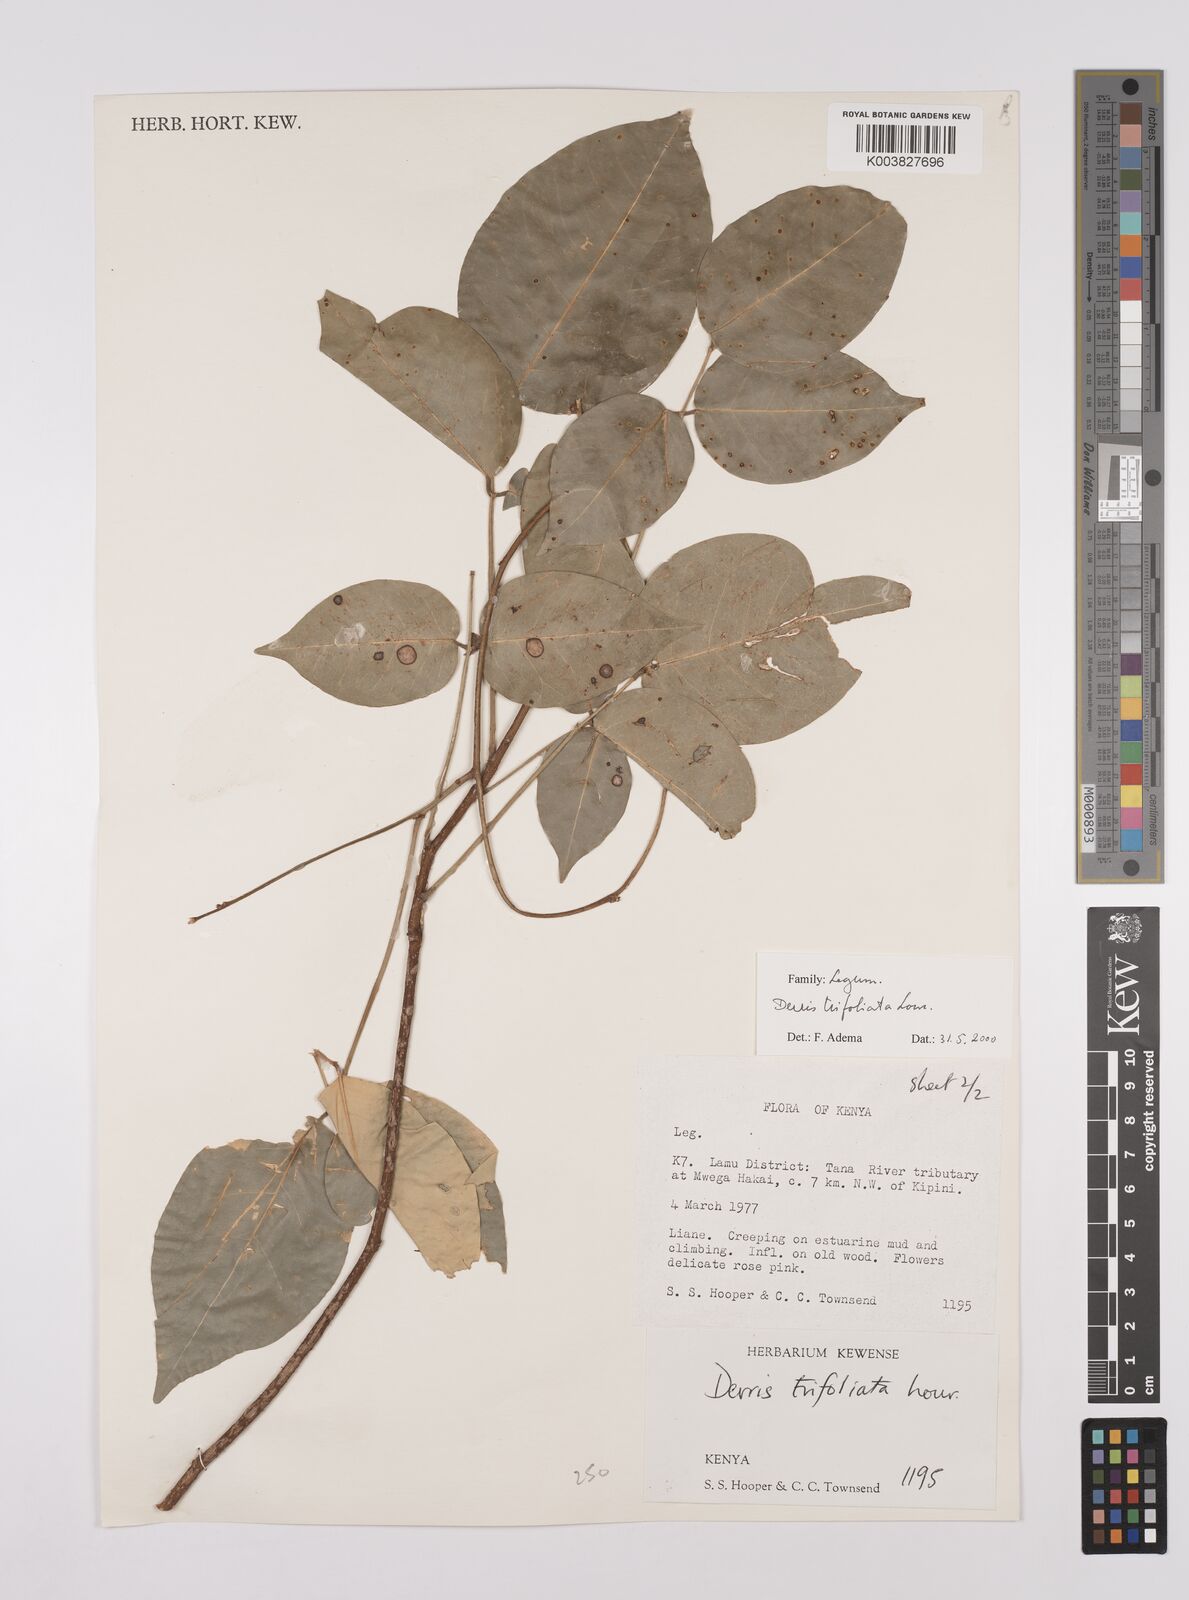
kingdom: Plantae
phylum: Tracheophyta
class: Magnoliopsida
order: Fabales
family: Fabaceae
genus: Derris
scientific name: Derris trifoliata
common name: Three-leaf derris
